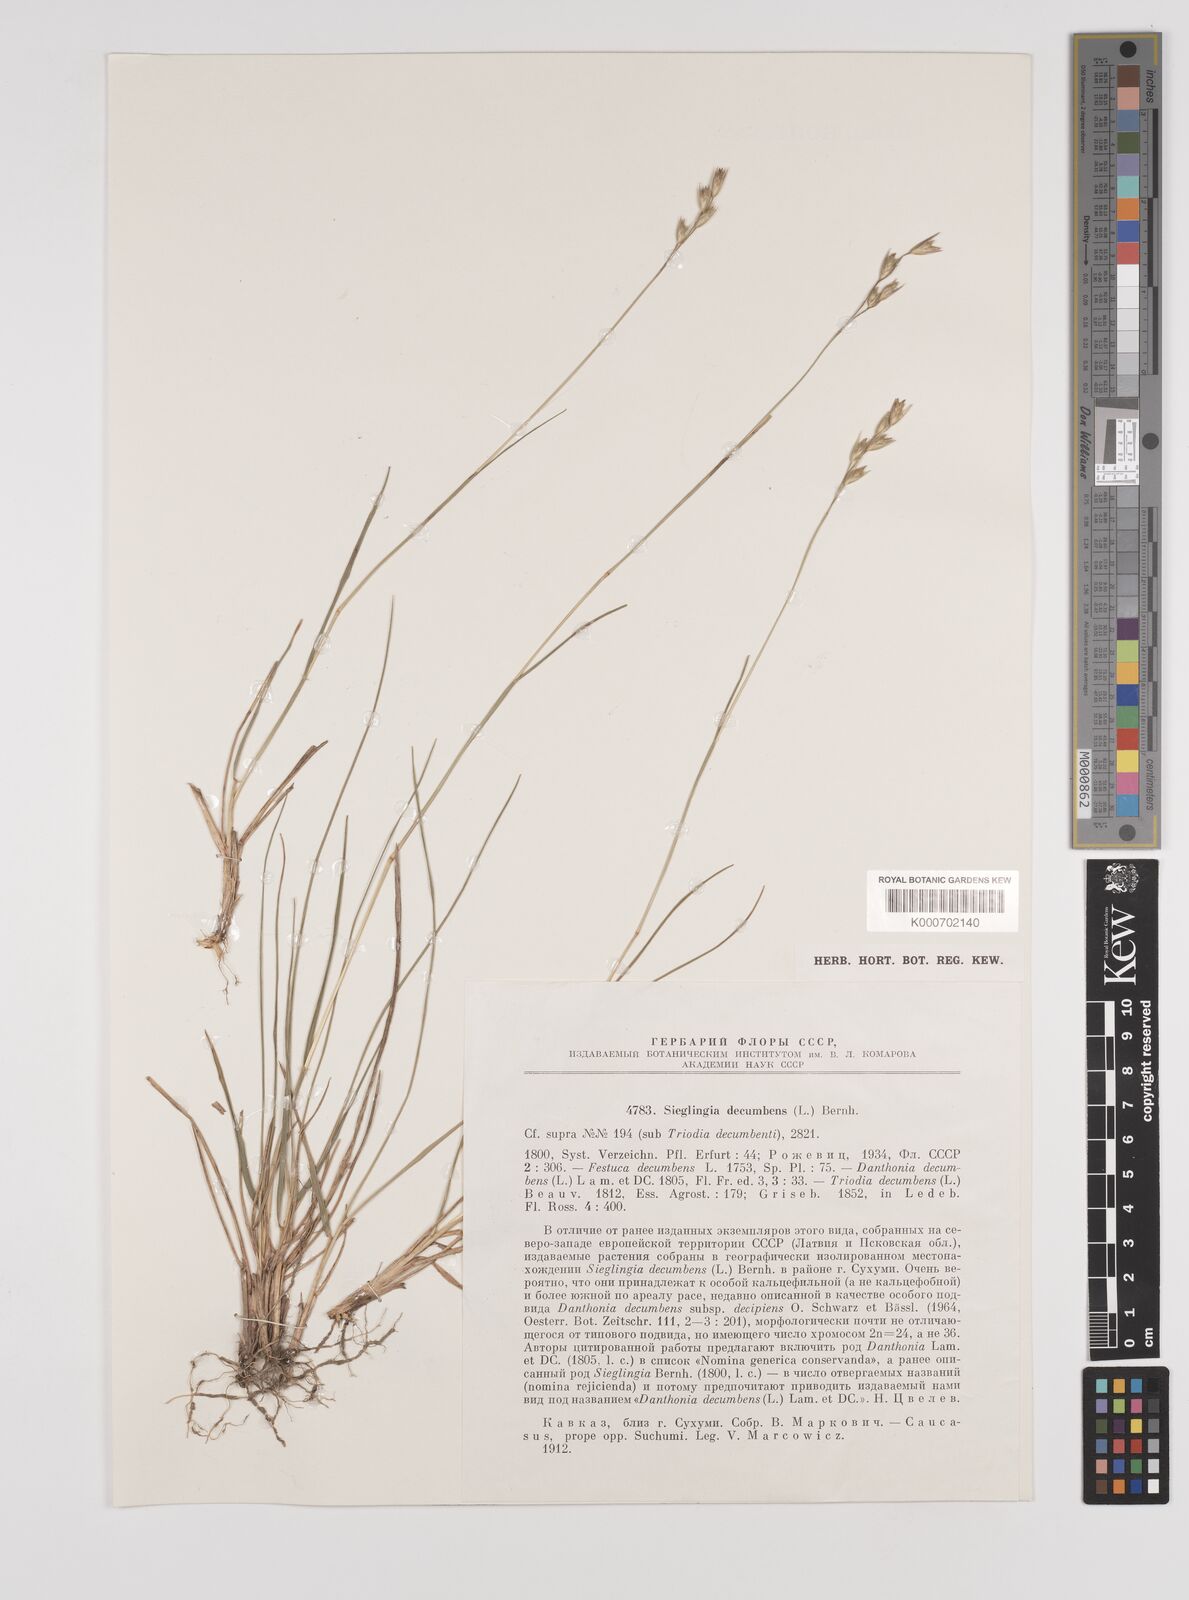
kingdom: Plantae
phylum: Tracheophyta
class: Liliopsida
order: Poales
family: Poaceae
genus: Danthonia
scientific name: Danthonia decumbens
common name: Common heathgrass
